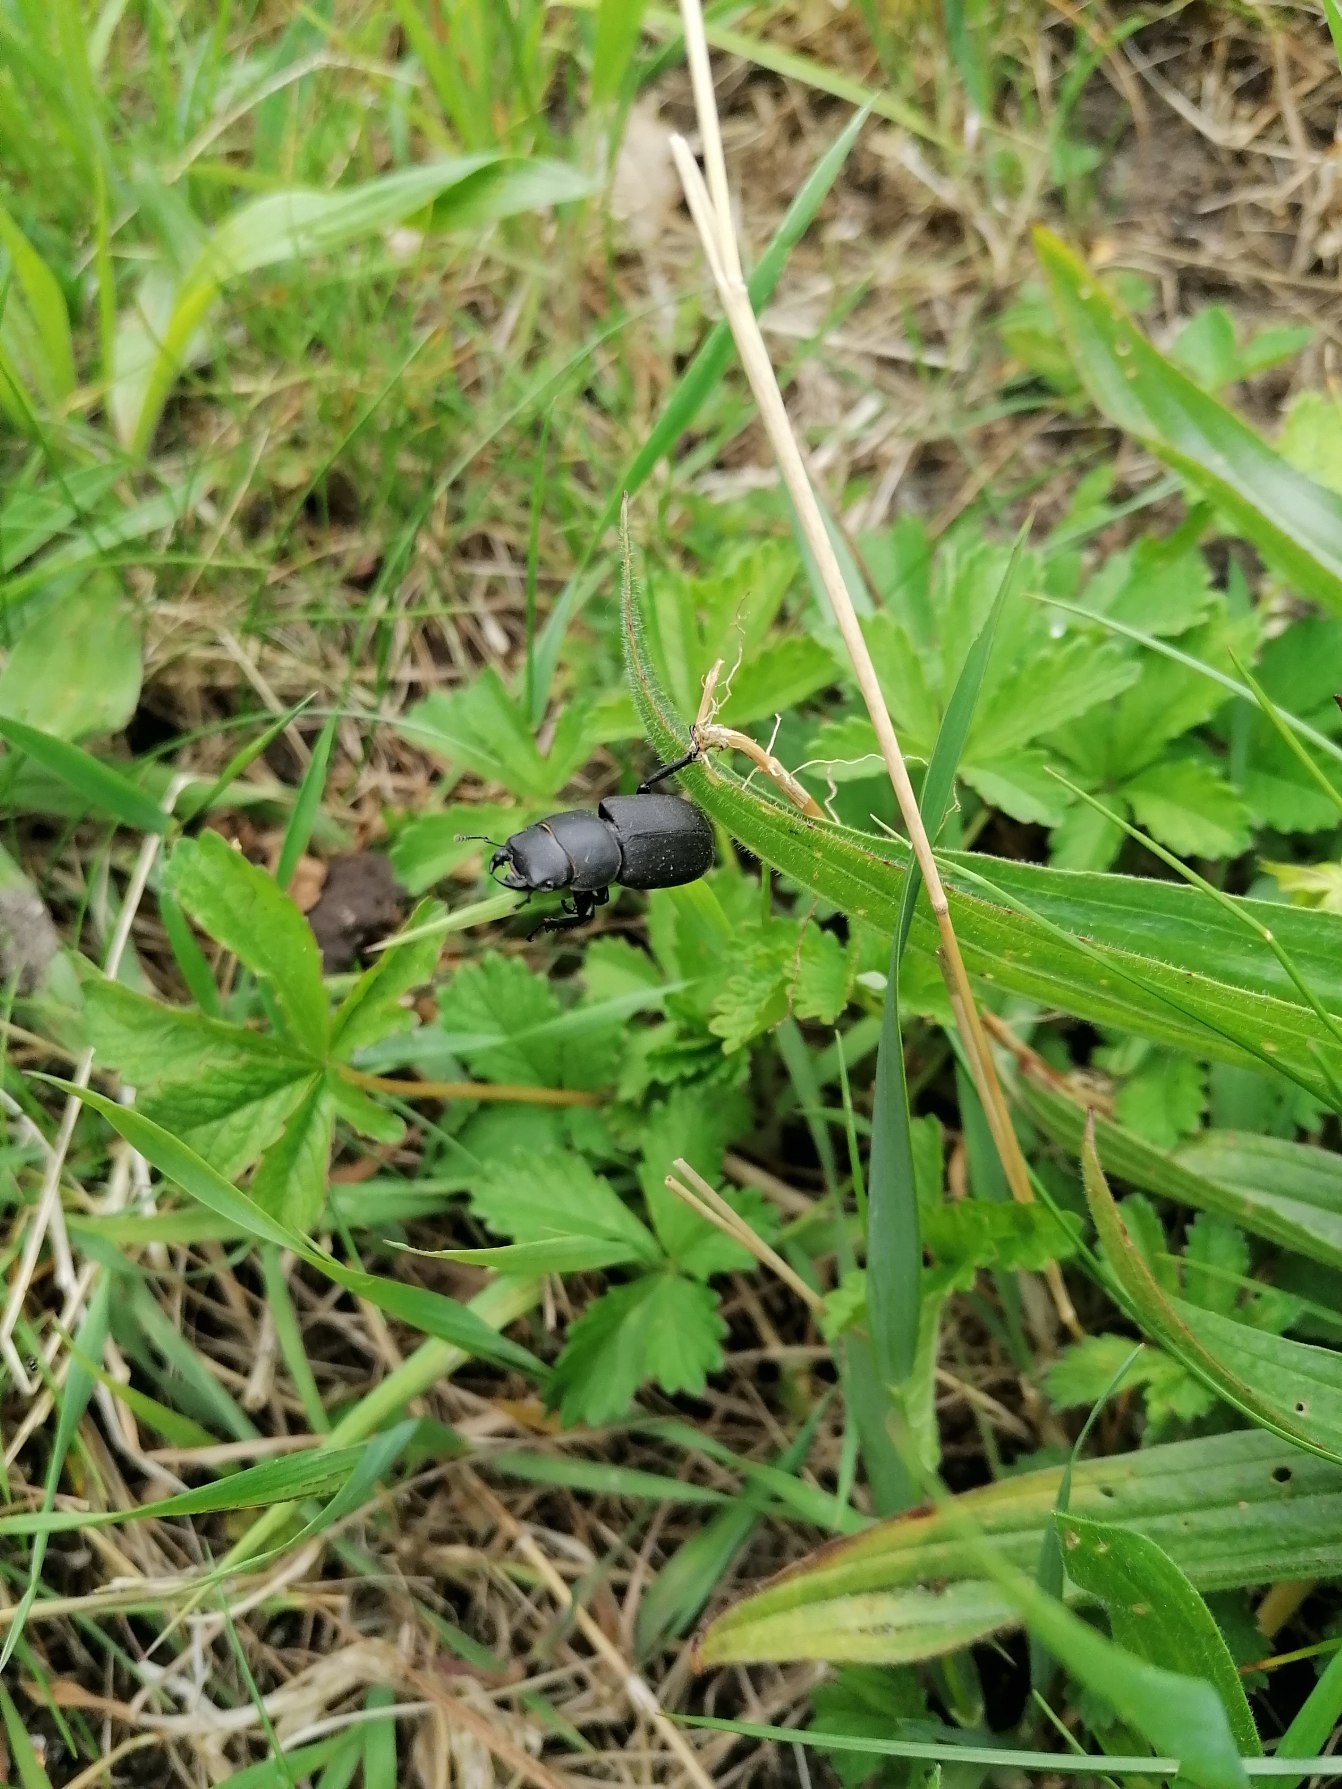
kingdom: Animalia
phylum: Arthropoda
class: Insecta
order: Coleoptera
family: Lucanidae
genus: Dorcus
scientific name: Dorcus parallelipipedus
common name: Bøghjort
